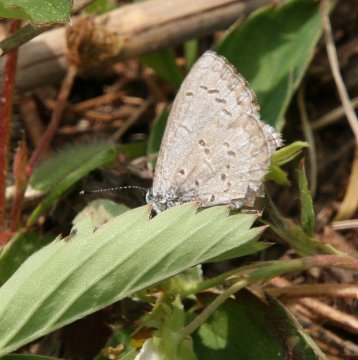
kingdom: Animalia
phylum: Arthropoda
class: Insecta
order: Lepidoptera
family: Lycaenidae
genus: Celastrina
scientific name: Celastrina
